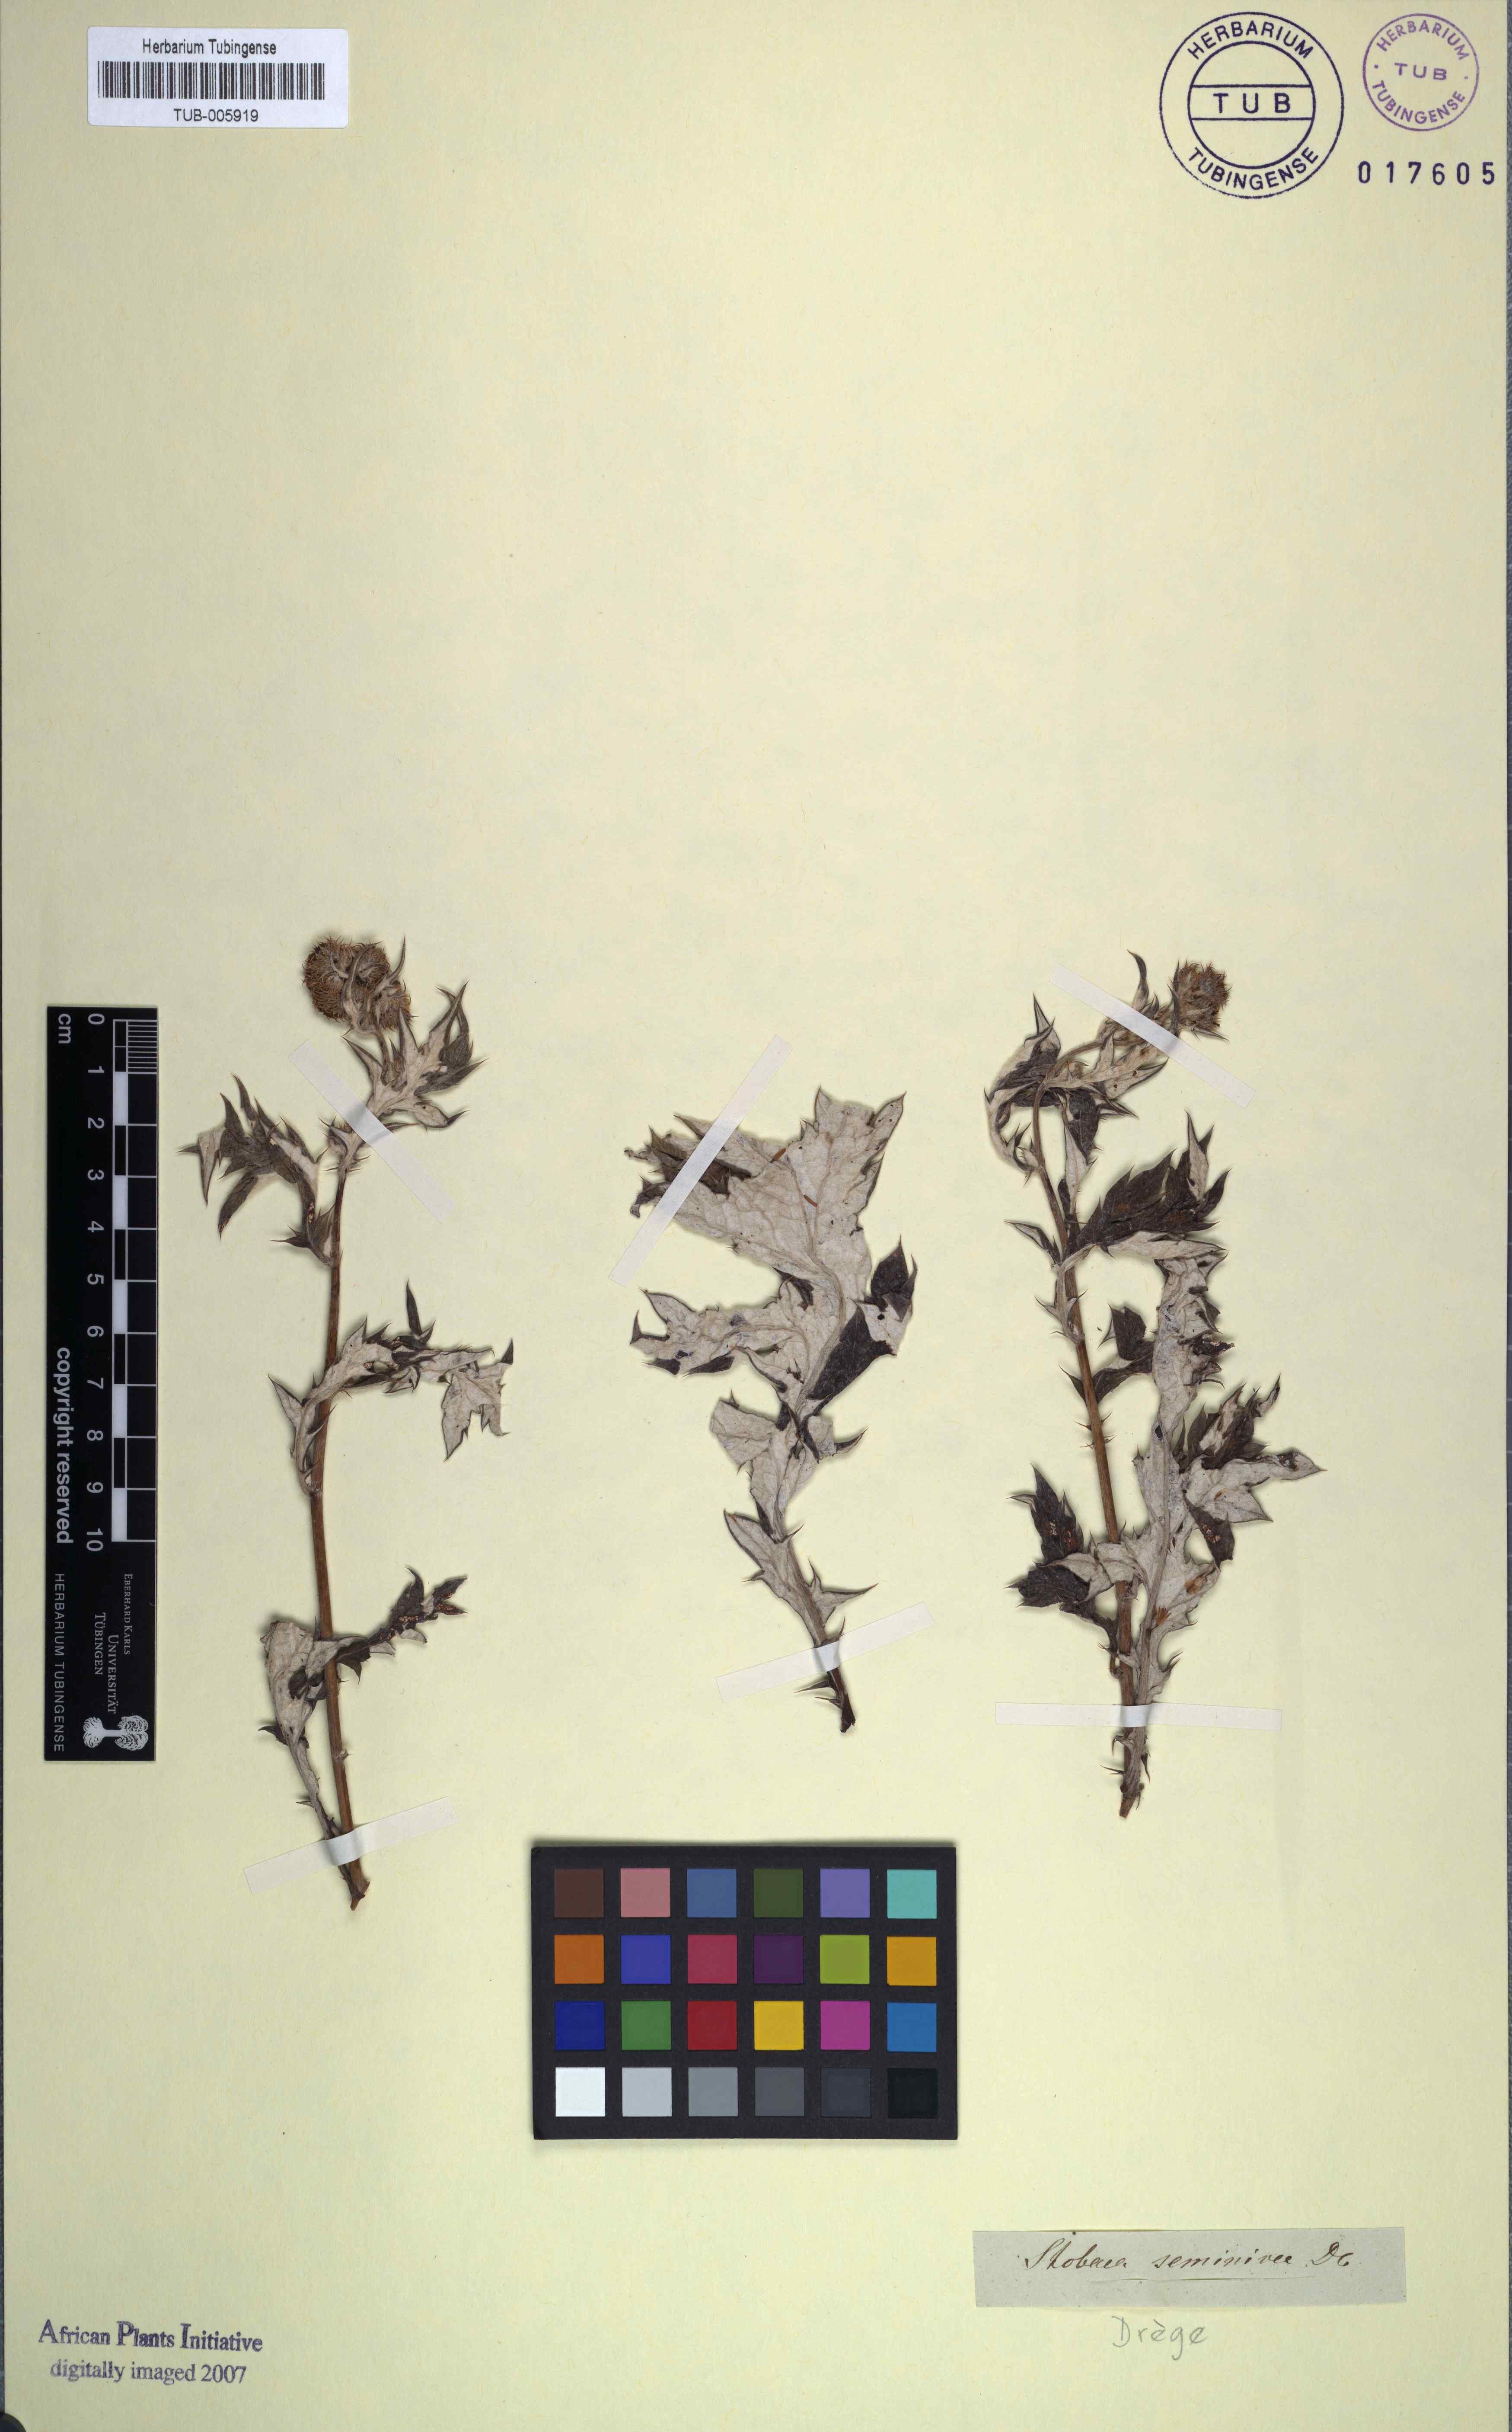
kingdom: Plantae
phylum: Tracheophyta
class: Magnoliopsida
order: Asterales
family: Asteraceae
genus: Berkheya
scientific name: Berkheya seminivea
